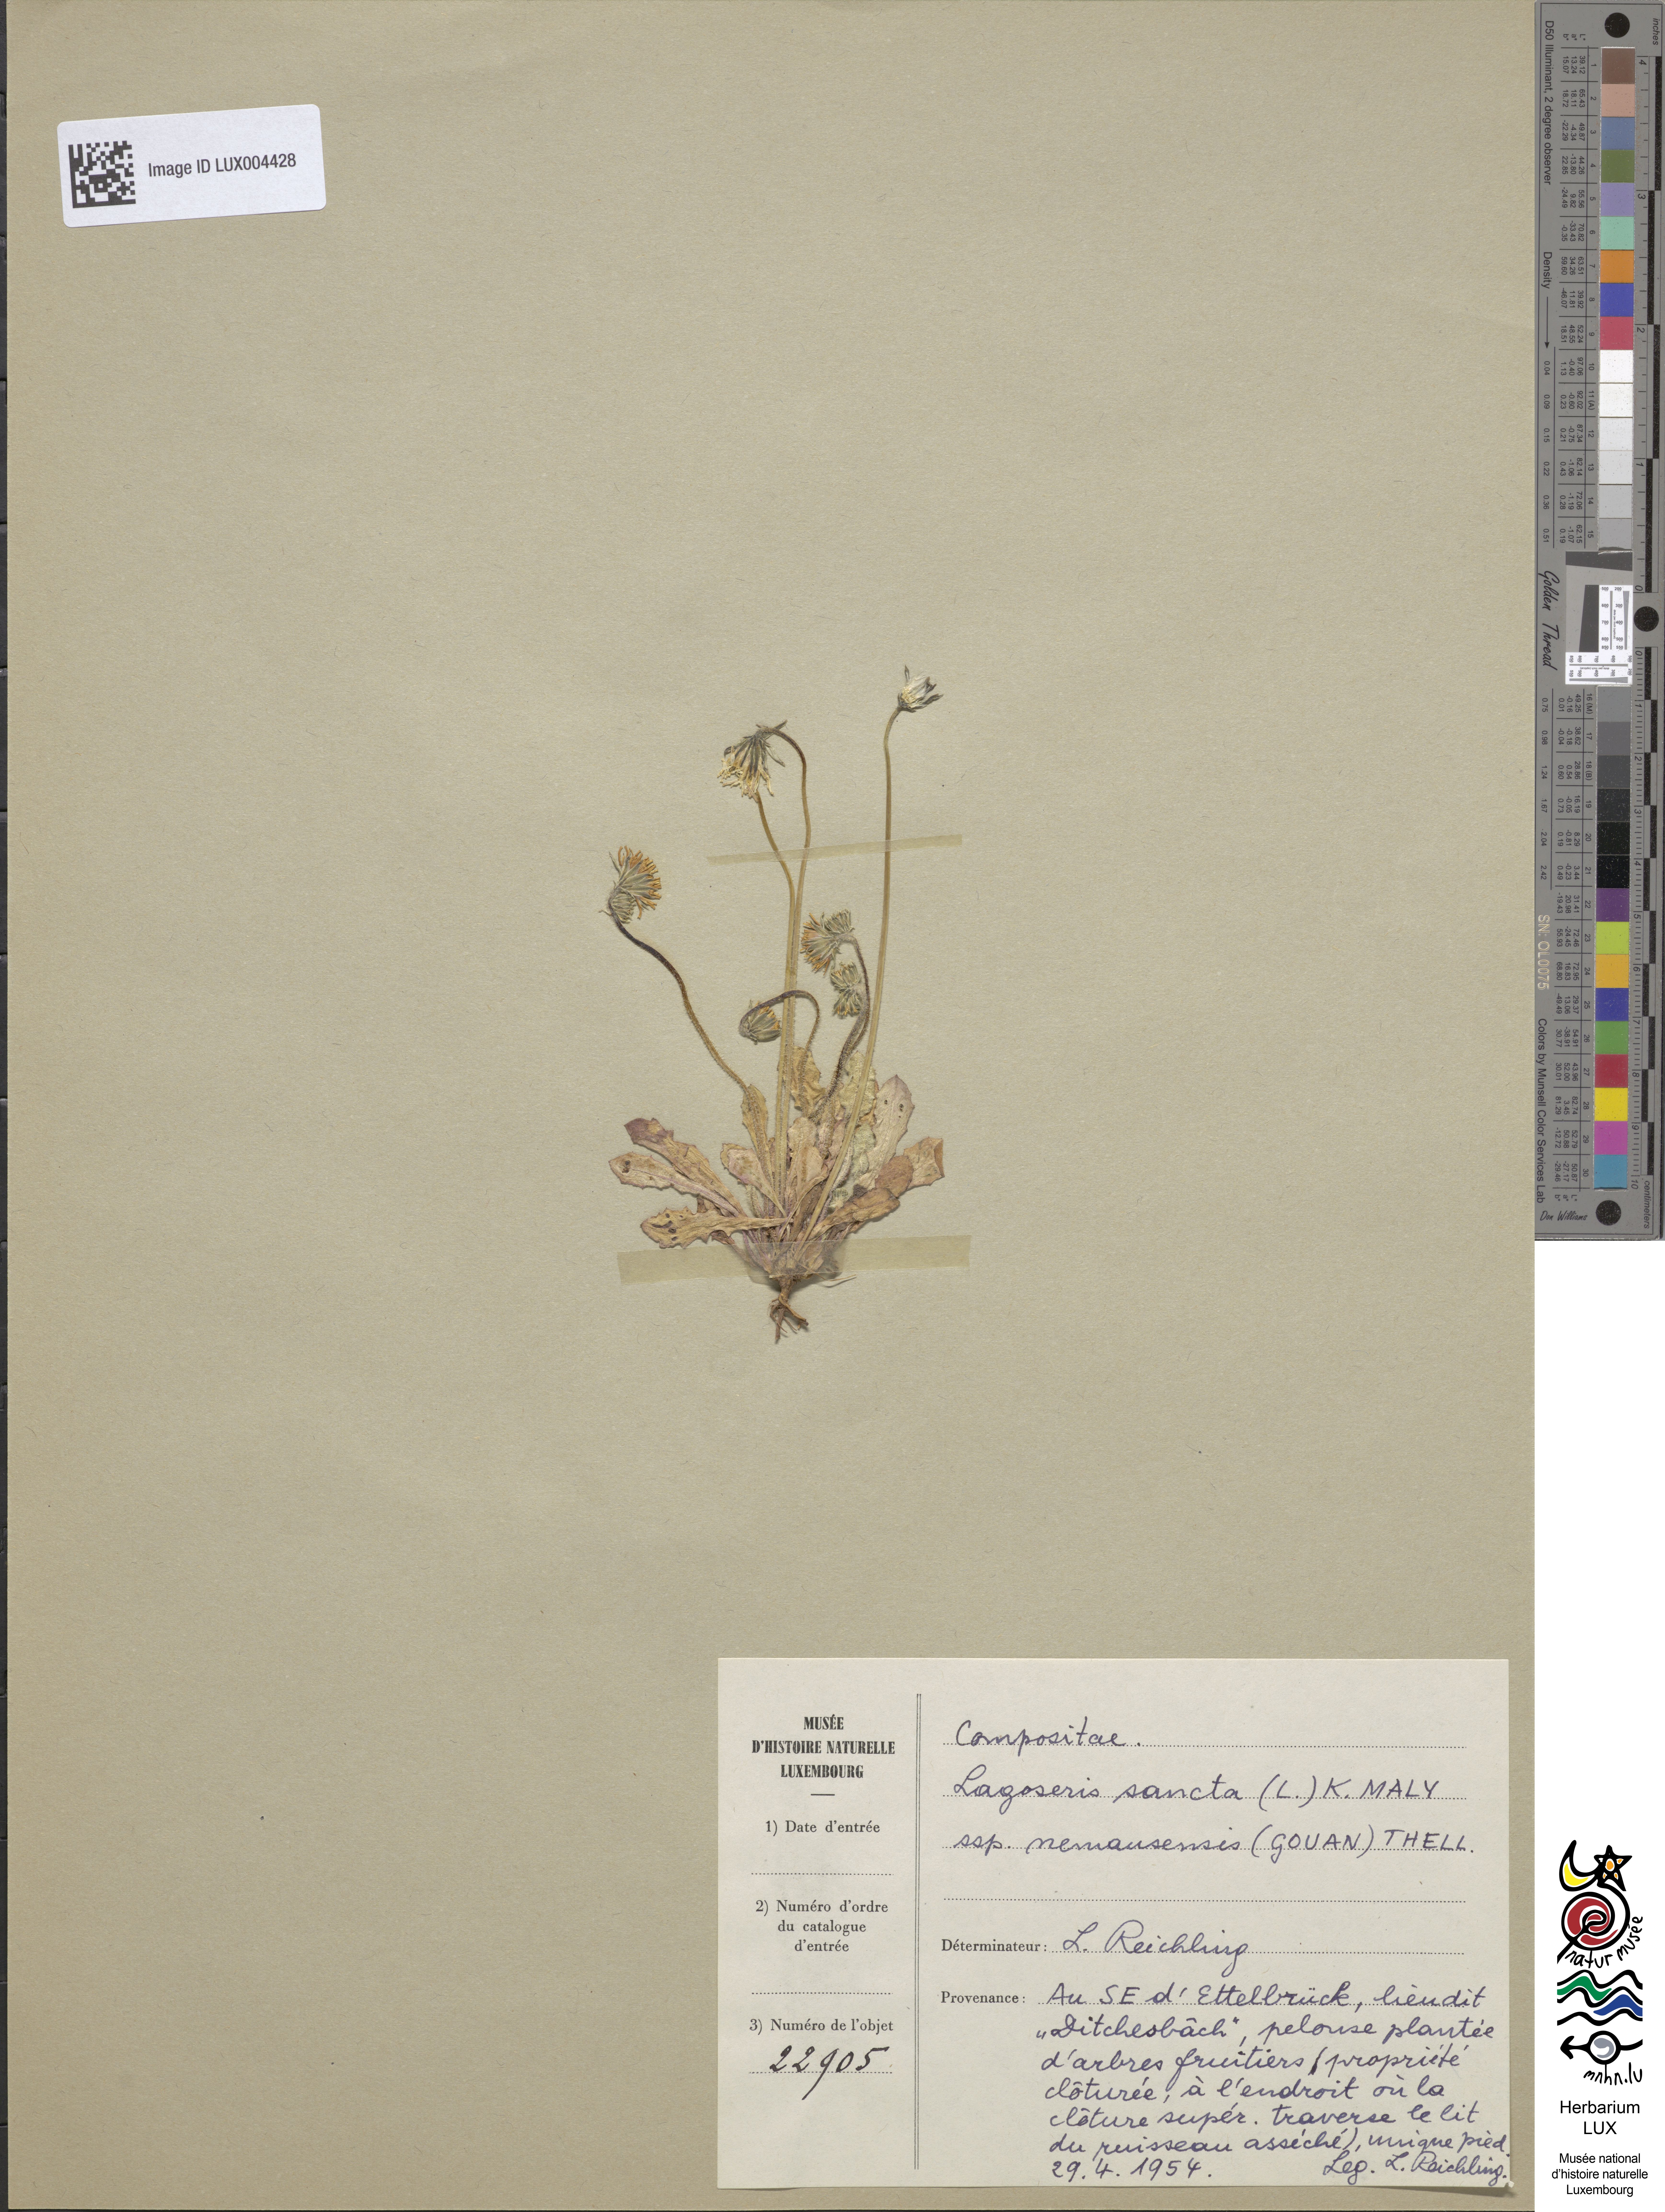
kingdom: Plantae
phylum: Tracheophyta
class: Magnoliopsida
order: Asterales
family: Asteraceae
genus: Crepis
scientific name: Crepis sancta
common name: Hawk's-beard
